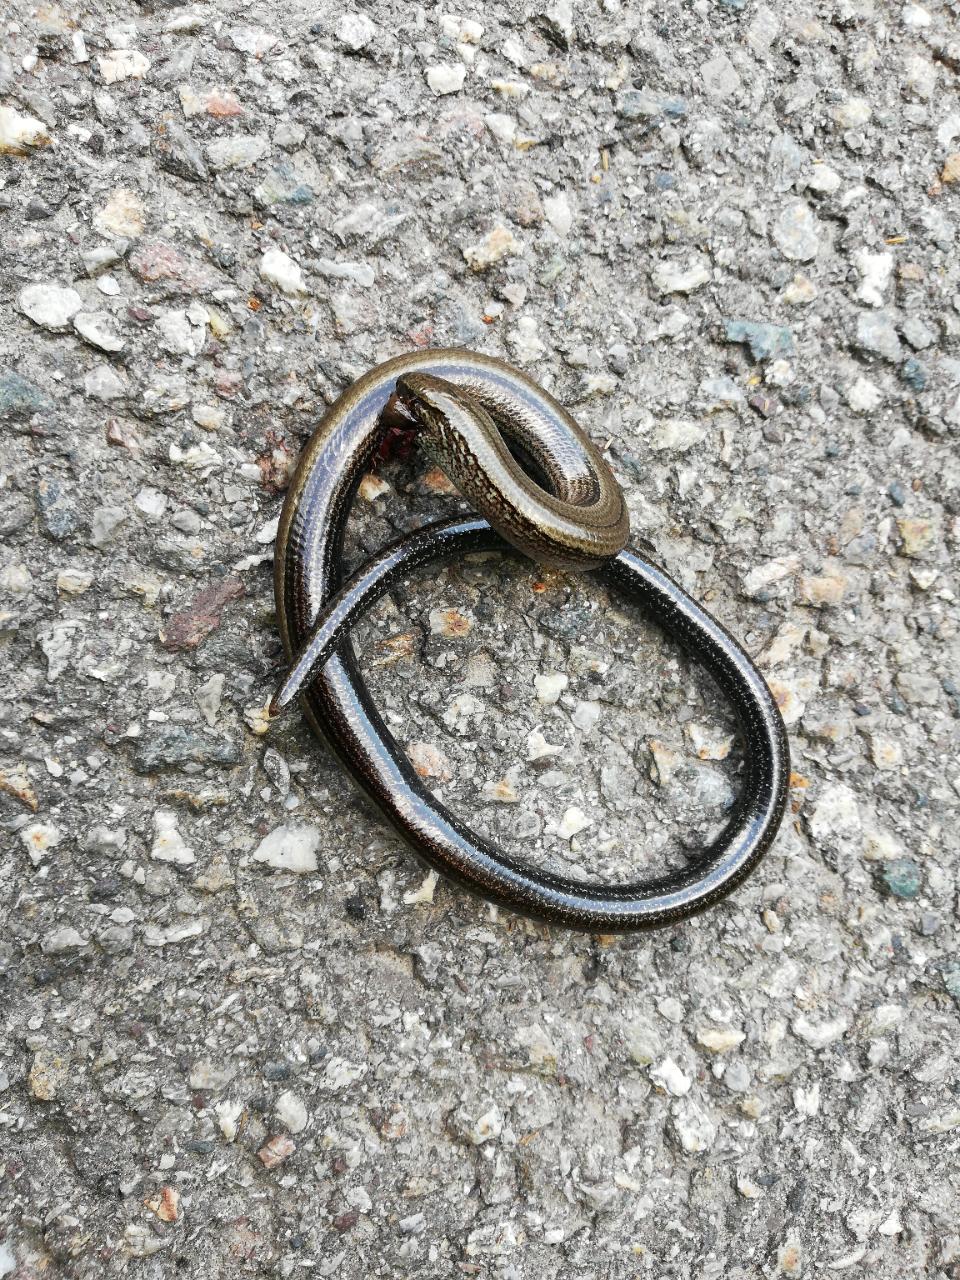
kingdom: Animalia
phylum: Chordata
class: Squamata
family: Anguidae
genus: Anguis
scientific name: Anguis fragilis
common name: Slow worm
